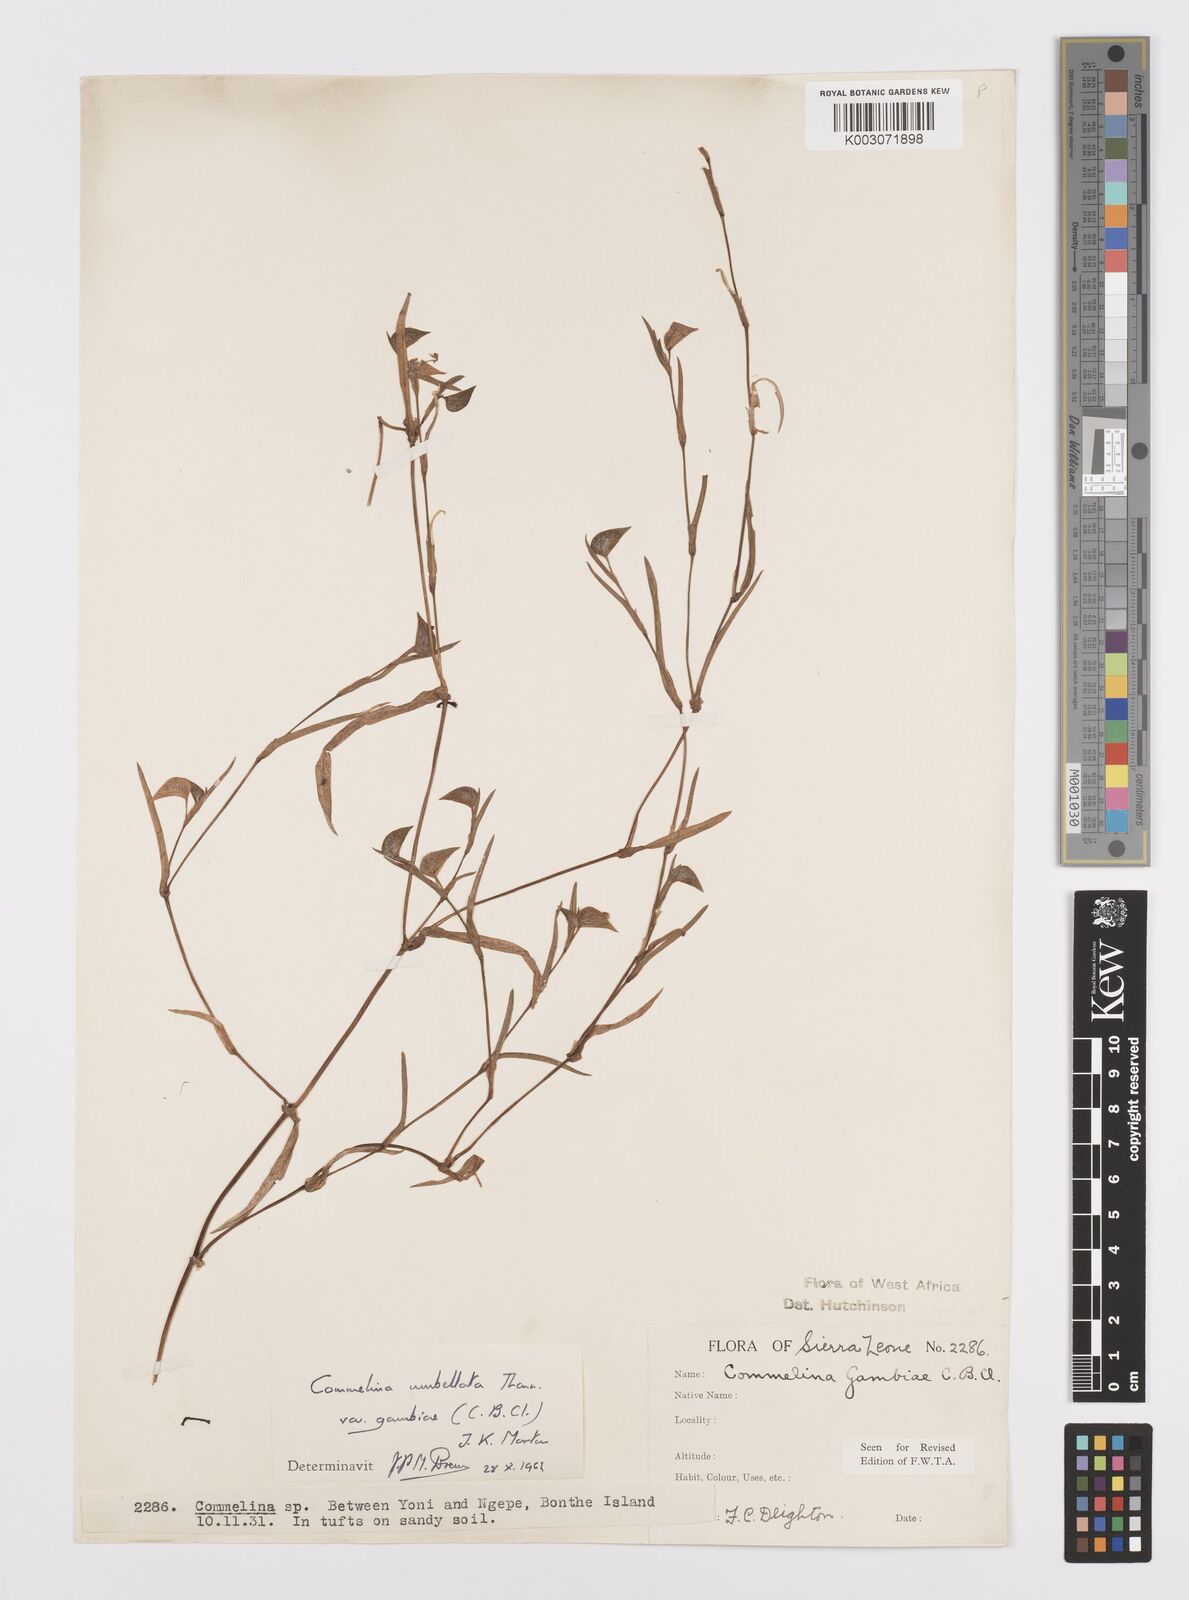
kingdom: Plantae
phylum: Tracheophyta
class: Liliopsida
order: Commelinales
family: Commelinaceae
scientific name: Commelinaceae
